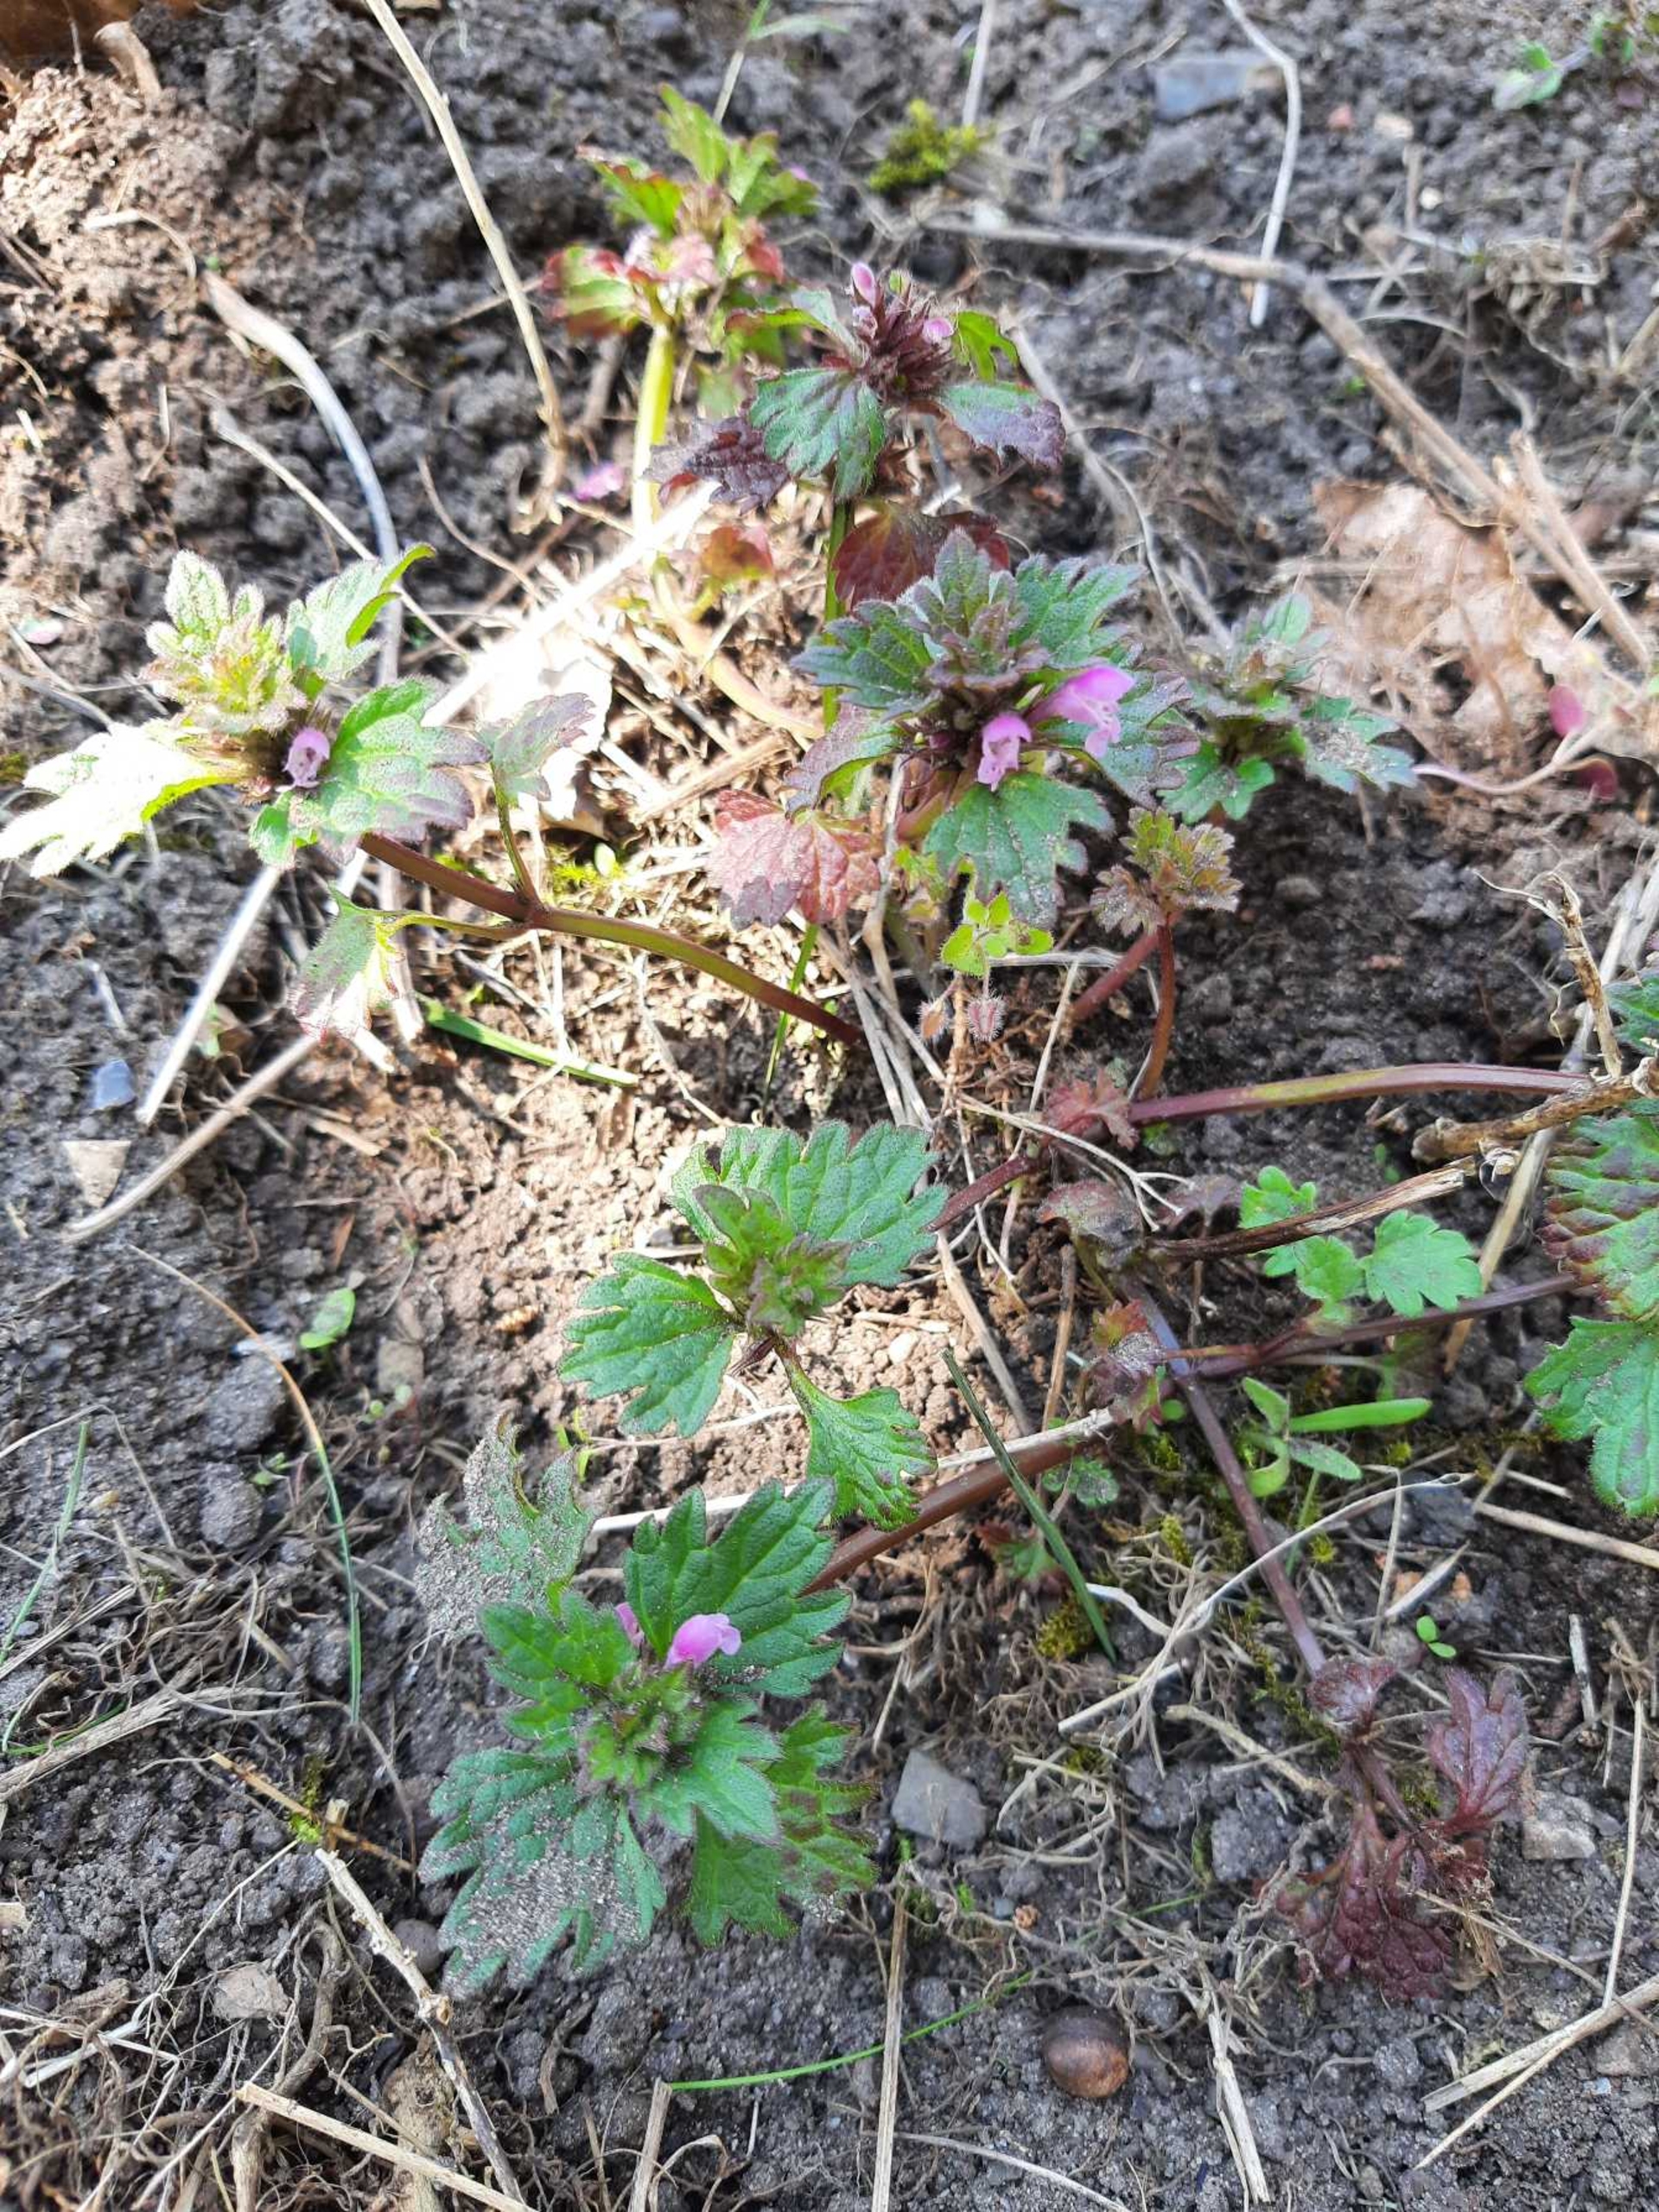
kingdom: Plantae
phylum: Tracheophyta
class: Magnoliopsida
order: Lamiales
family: Lamiaceae
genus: Lamium
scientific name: Lamium hybridum
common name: Fliget tvetand
